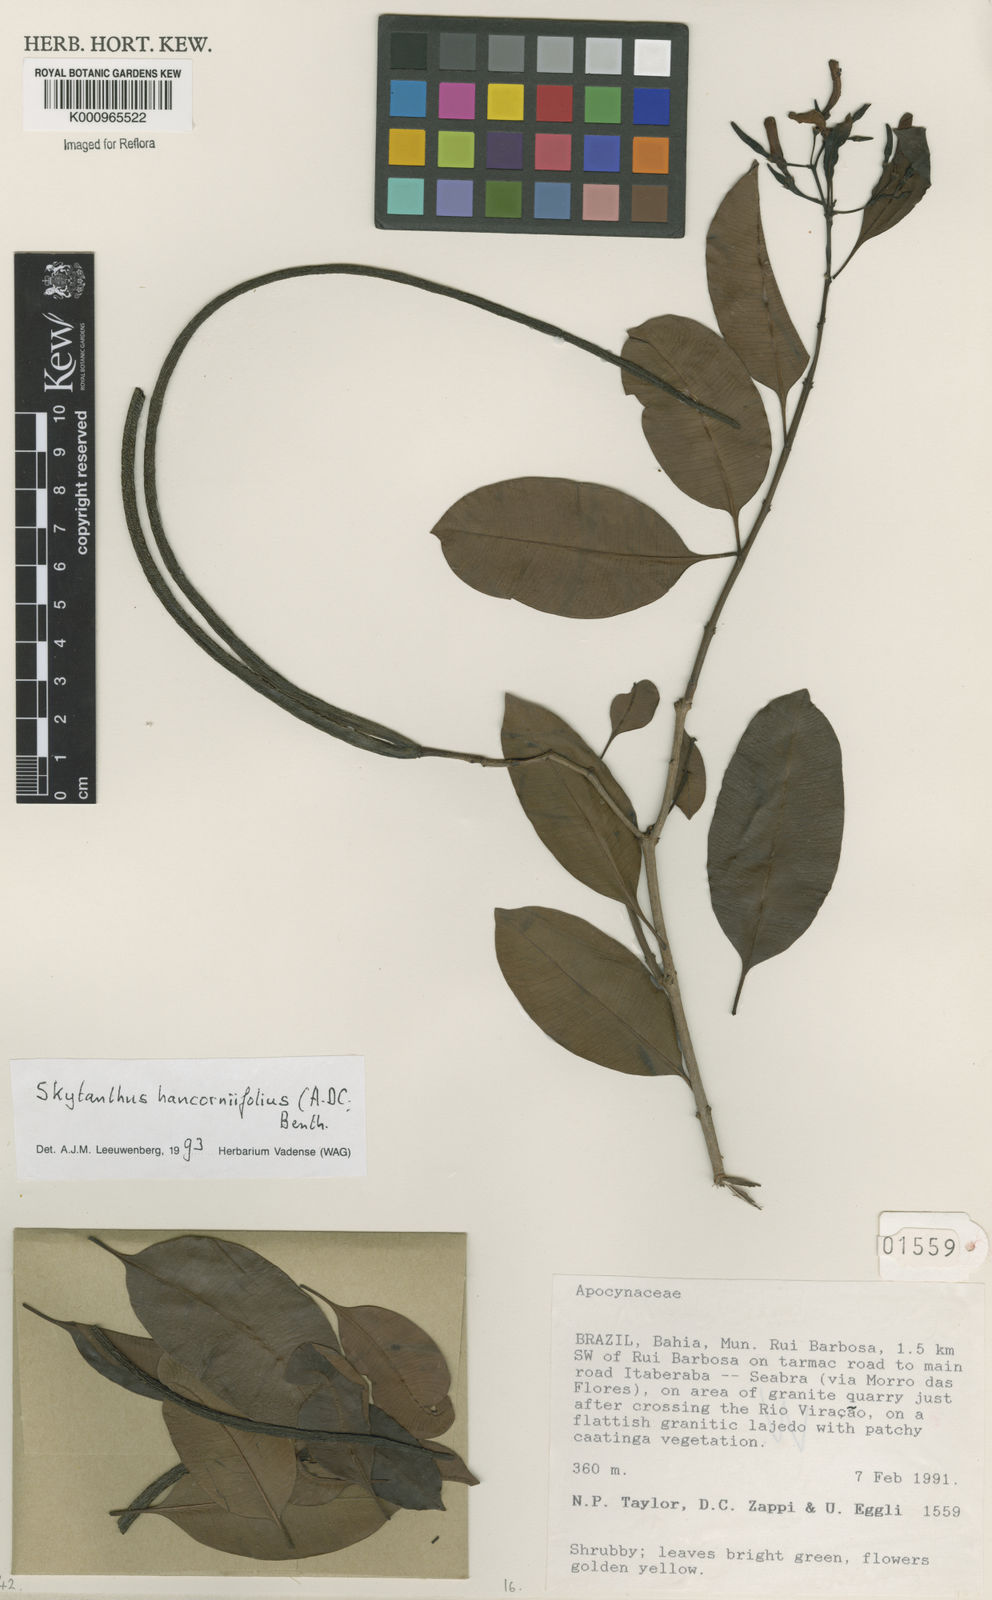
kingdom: Plantae
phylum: Tracheophyta
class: Magnoliopsida
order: Gentianales
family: Apocynaceae
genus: Skytanthus
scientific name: Skytanthus hancorniifolius
